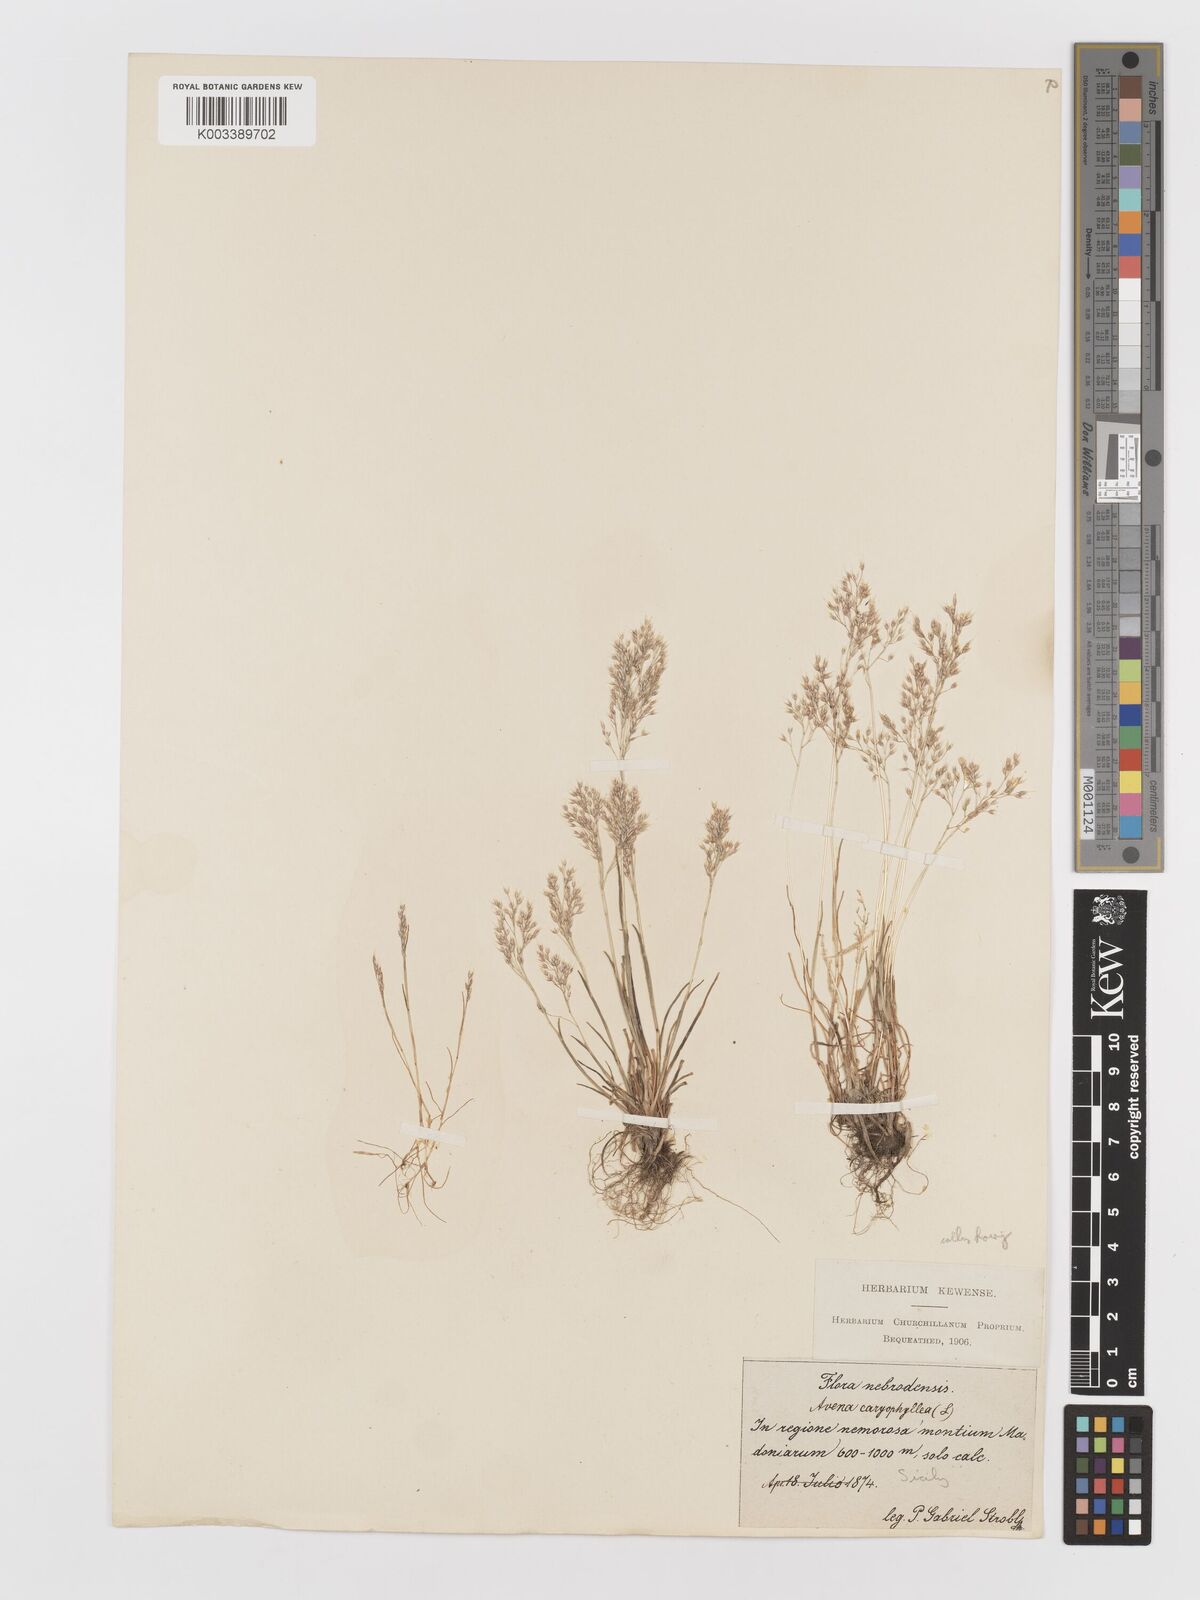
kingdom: Plantae
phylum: Tracheophyta
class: Liliopsida
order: Poales
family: Poaceae
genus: Aira
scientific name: Aira caryophyllea
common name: Silver hairgrass
